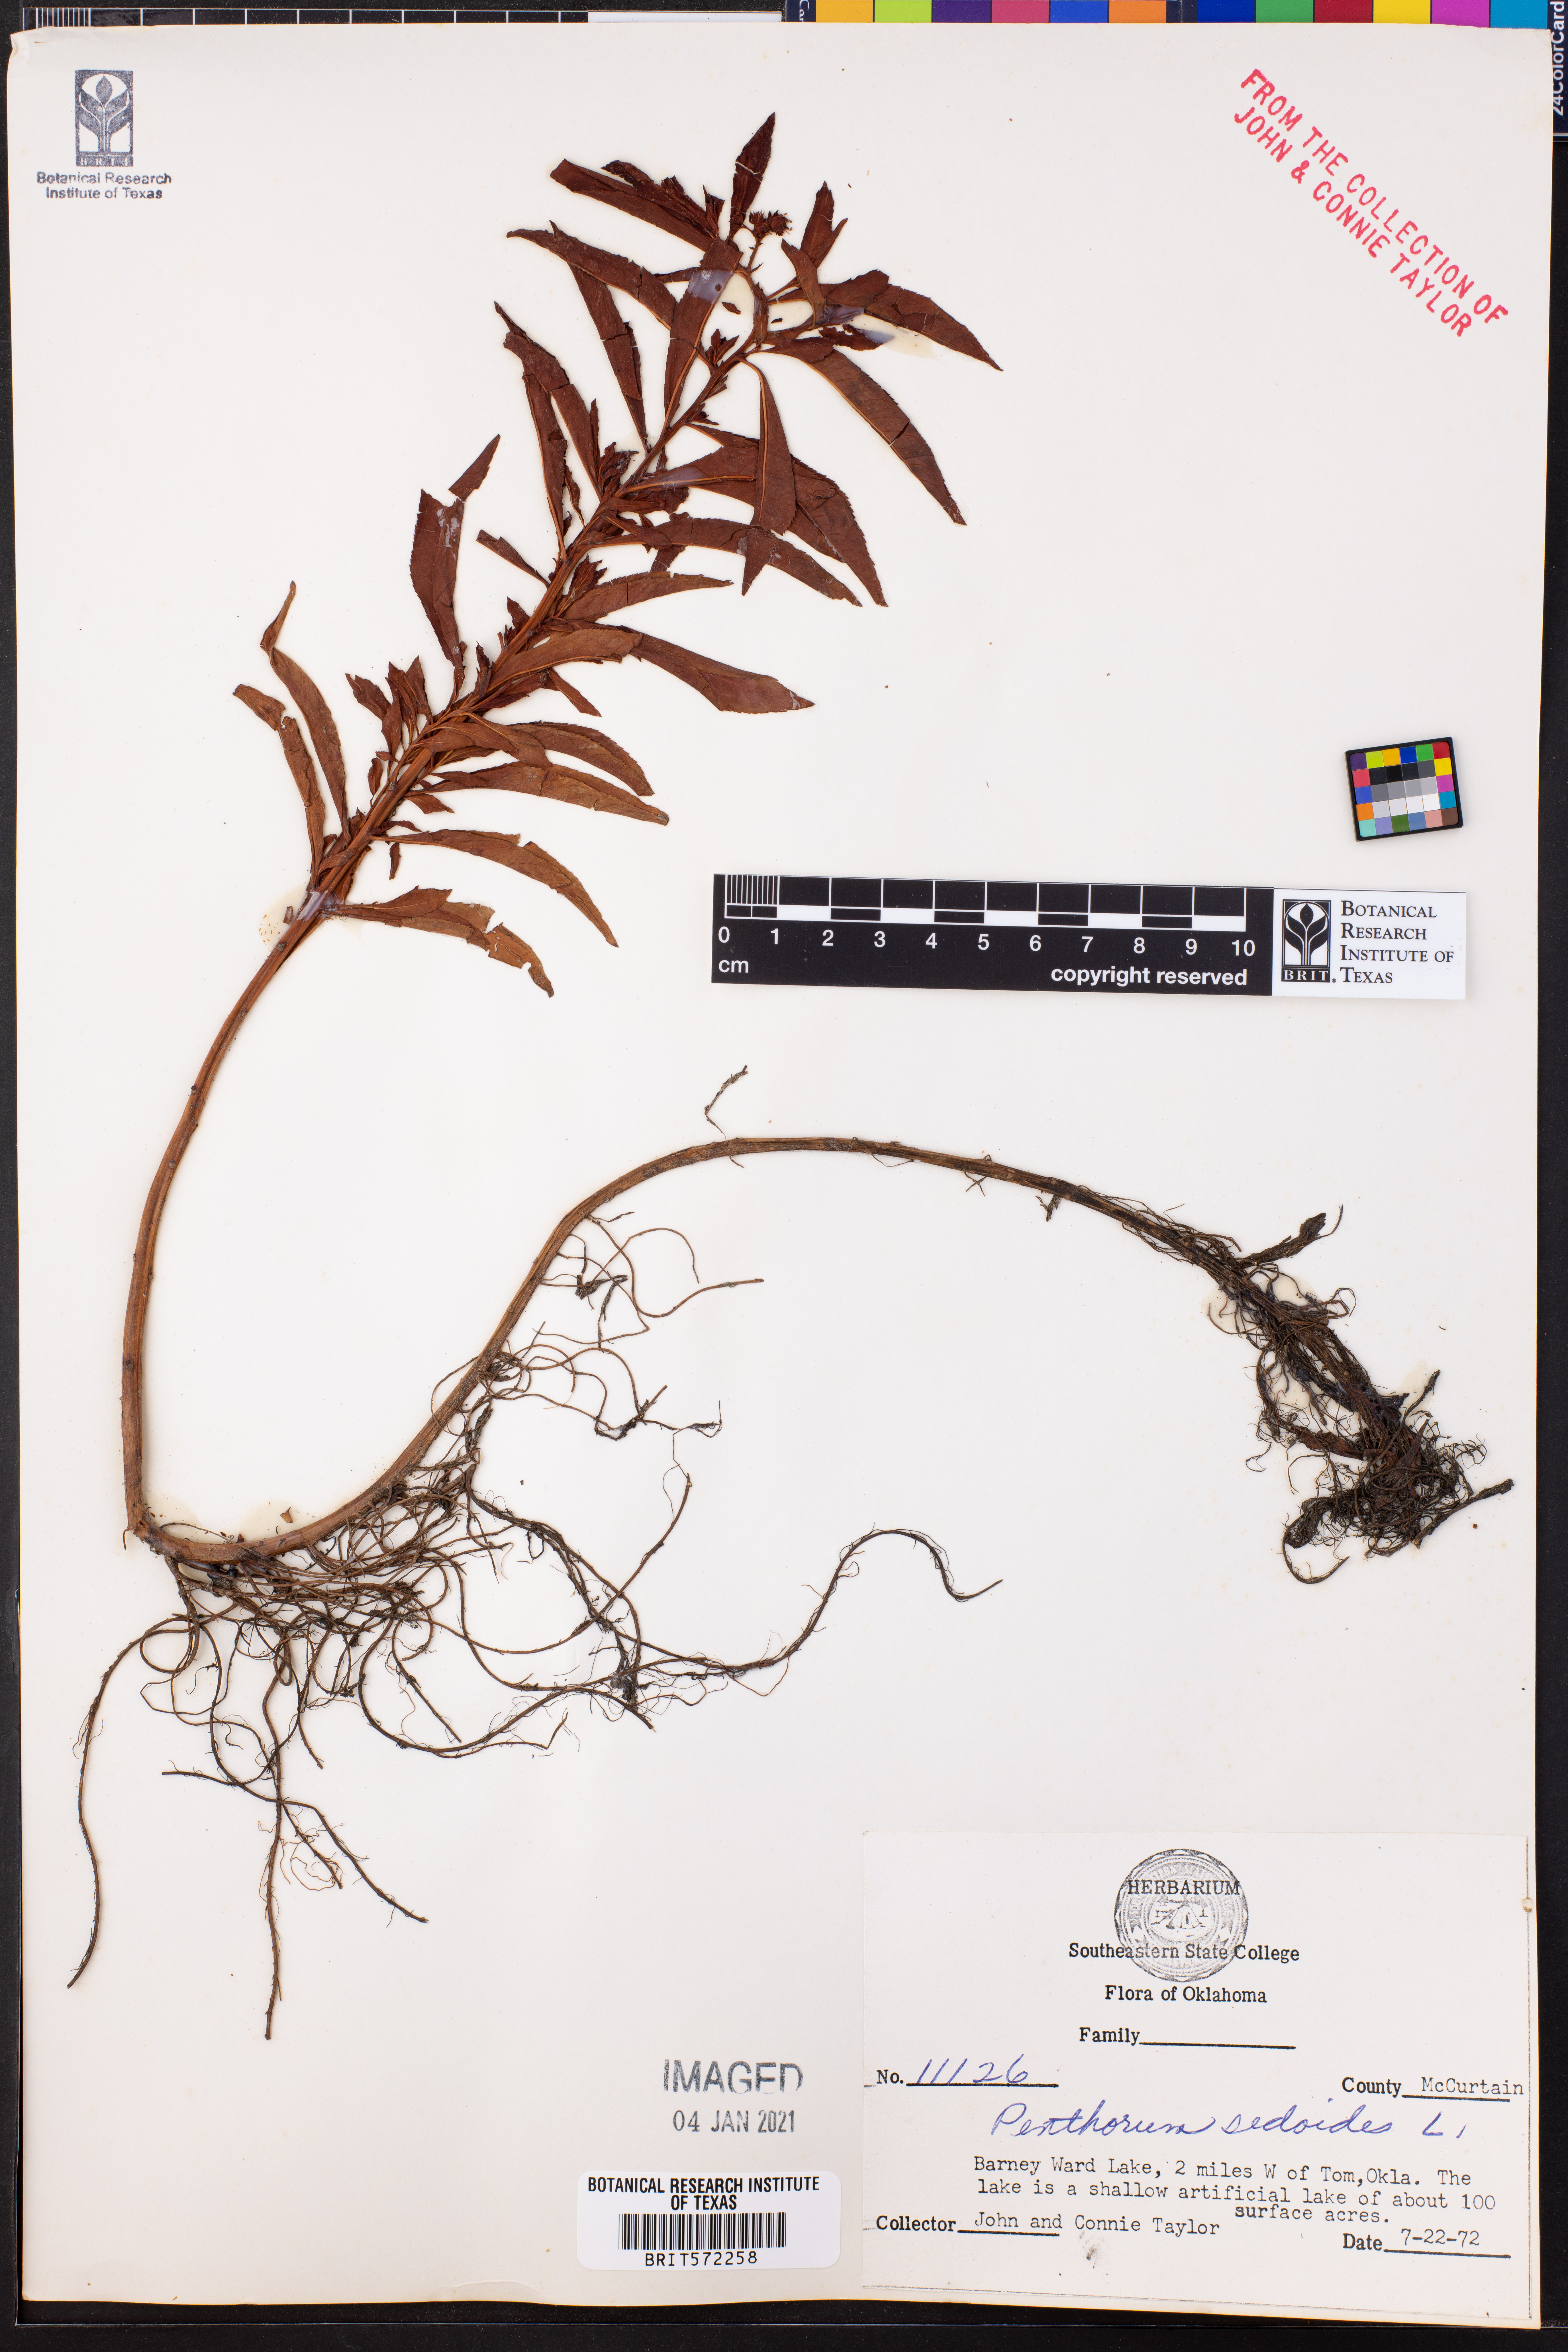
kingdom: Plantae
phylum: Tracheophyta
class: Magnoliopsida
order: Saxifragales
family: Penthoraceae
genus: Penthorum
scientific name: Penthorum sedoides
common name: Ditch stonecrop
